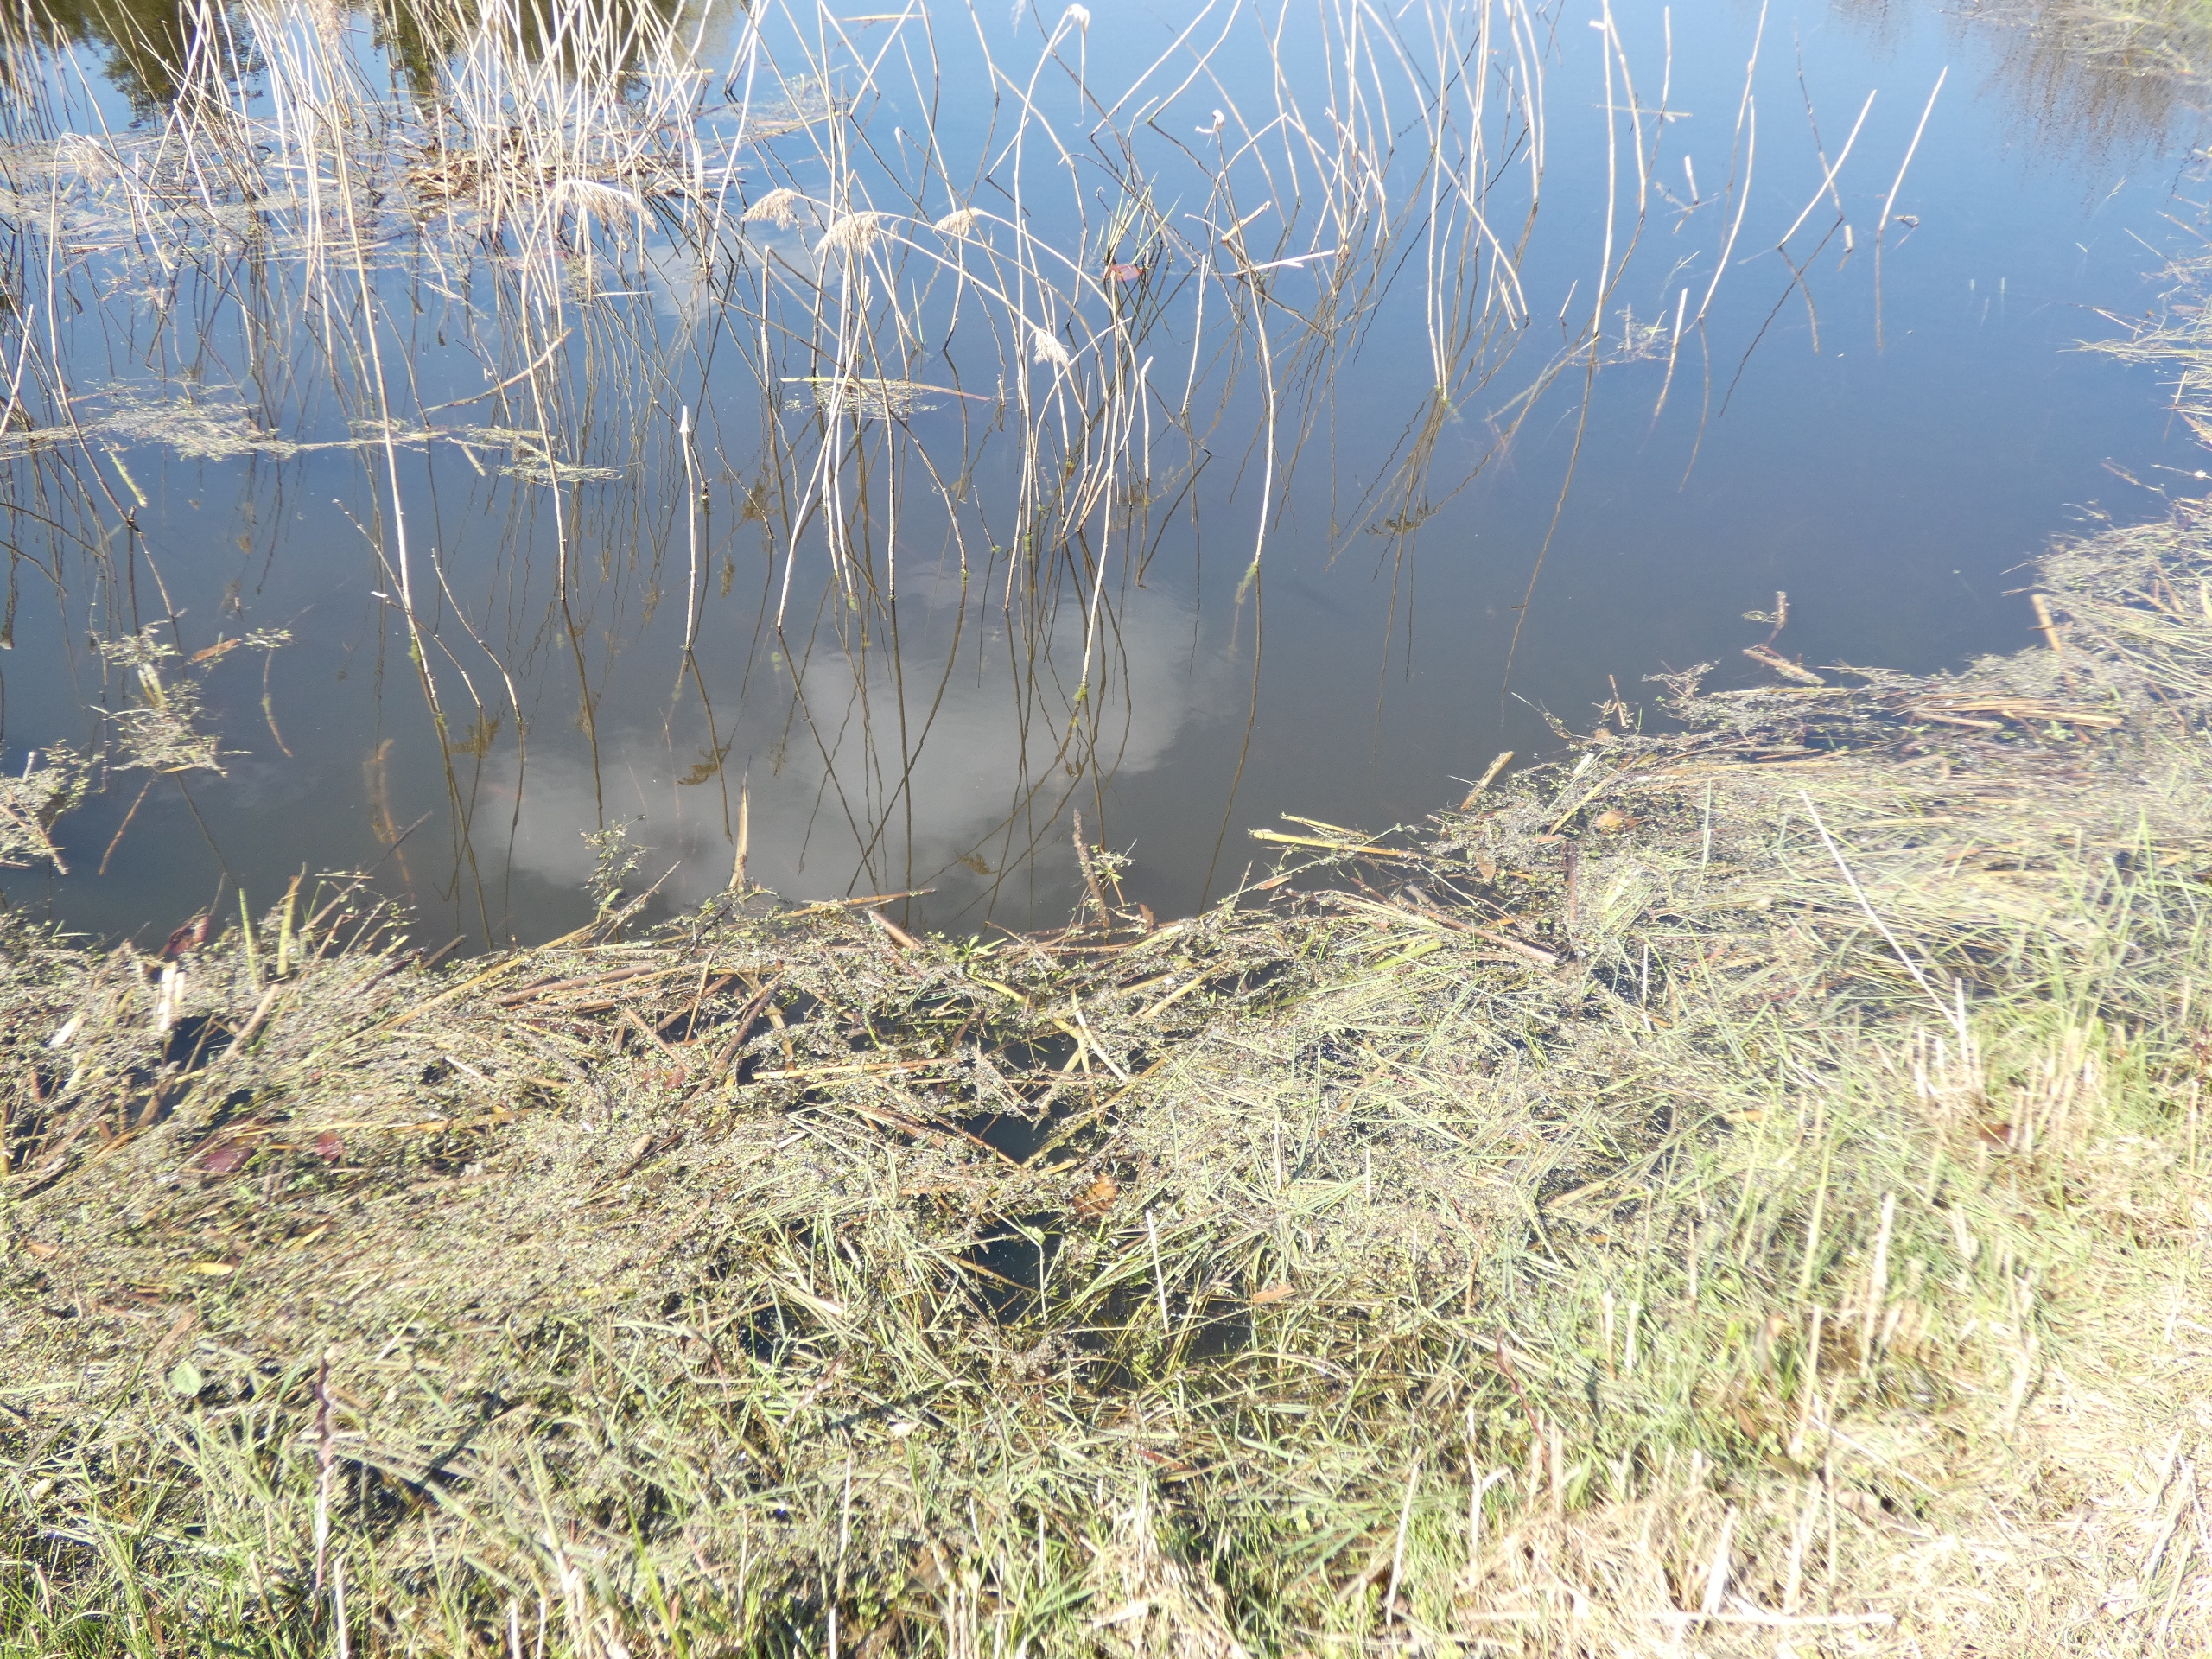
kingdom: Animalia
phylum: Chordata
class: Amphibia
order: Anura
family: Ranidae
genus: Pelophylax
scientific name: Pelophylax lessonae
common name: Grøn frø
